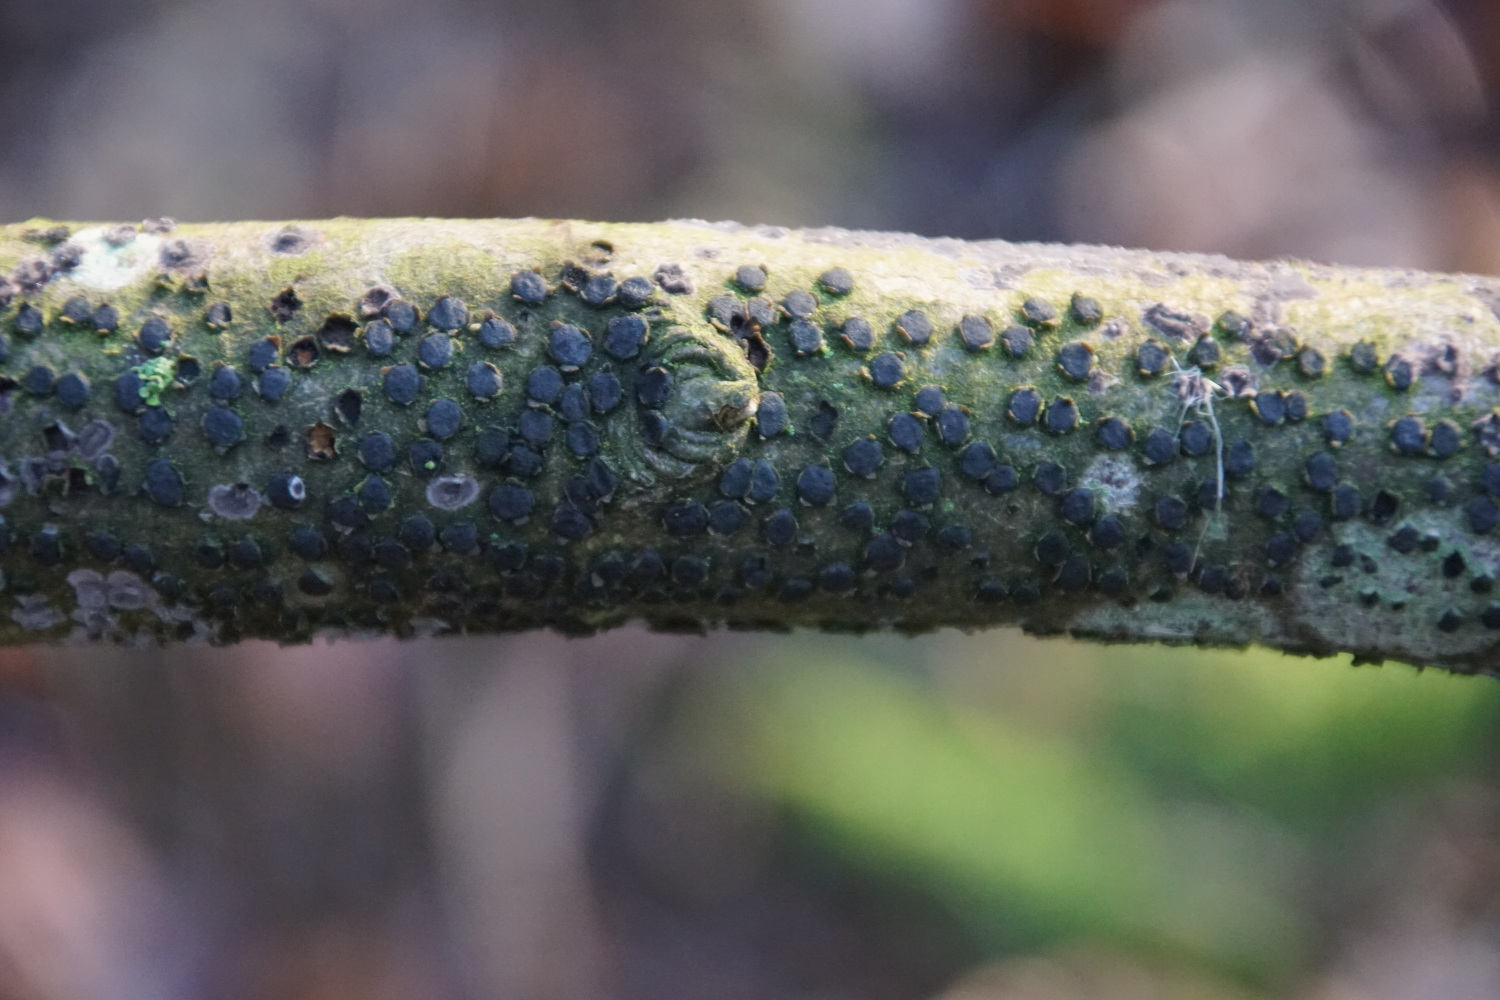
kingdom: Fungi
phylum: Ascomycota
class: Sordariomycetes
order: Xylariales
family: Diatrypaceae
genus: Diatrype
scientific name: Diatrype disciformis
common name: kant-kulskorpe
